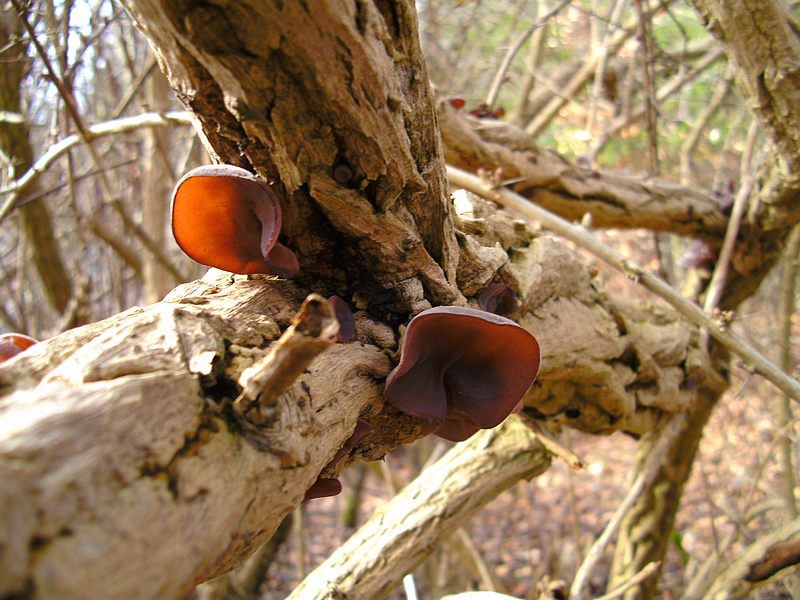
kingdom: Fungi
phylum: Basidiomycota
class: Agaricomycetes
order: Auriculariales
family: Auriculariaceae
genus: Auricularia
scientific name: Auricularia auricula-judae
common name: almindelig judasøre
